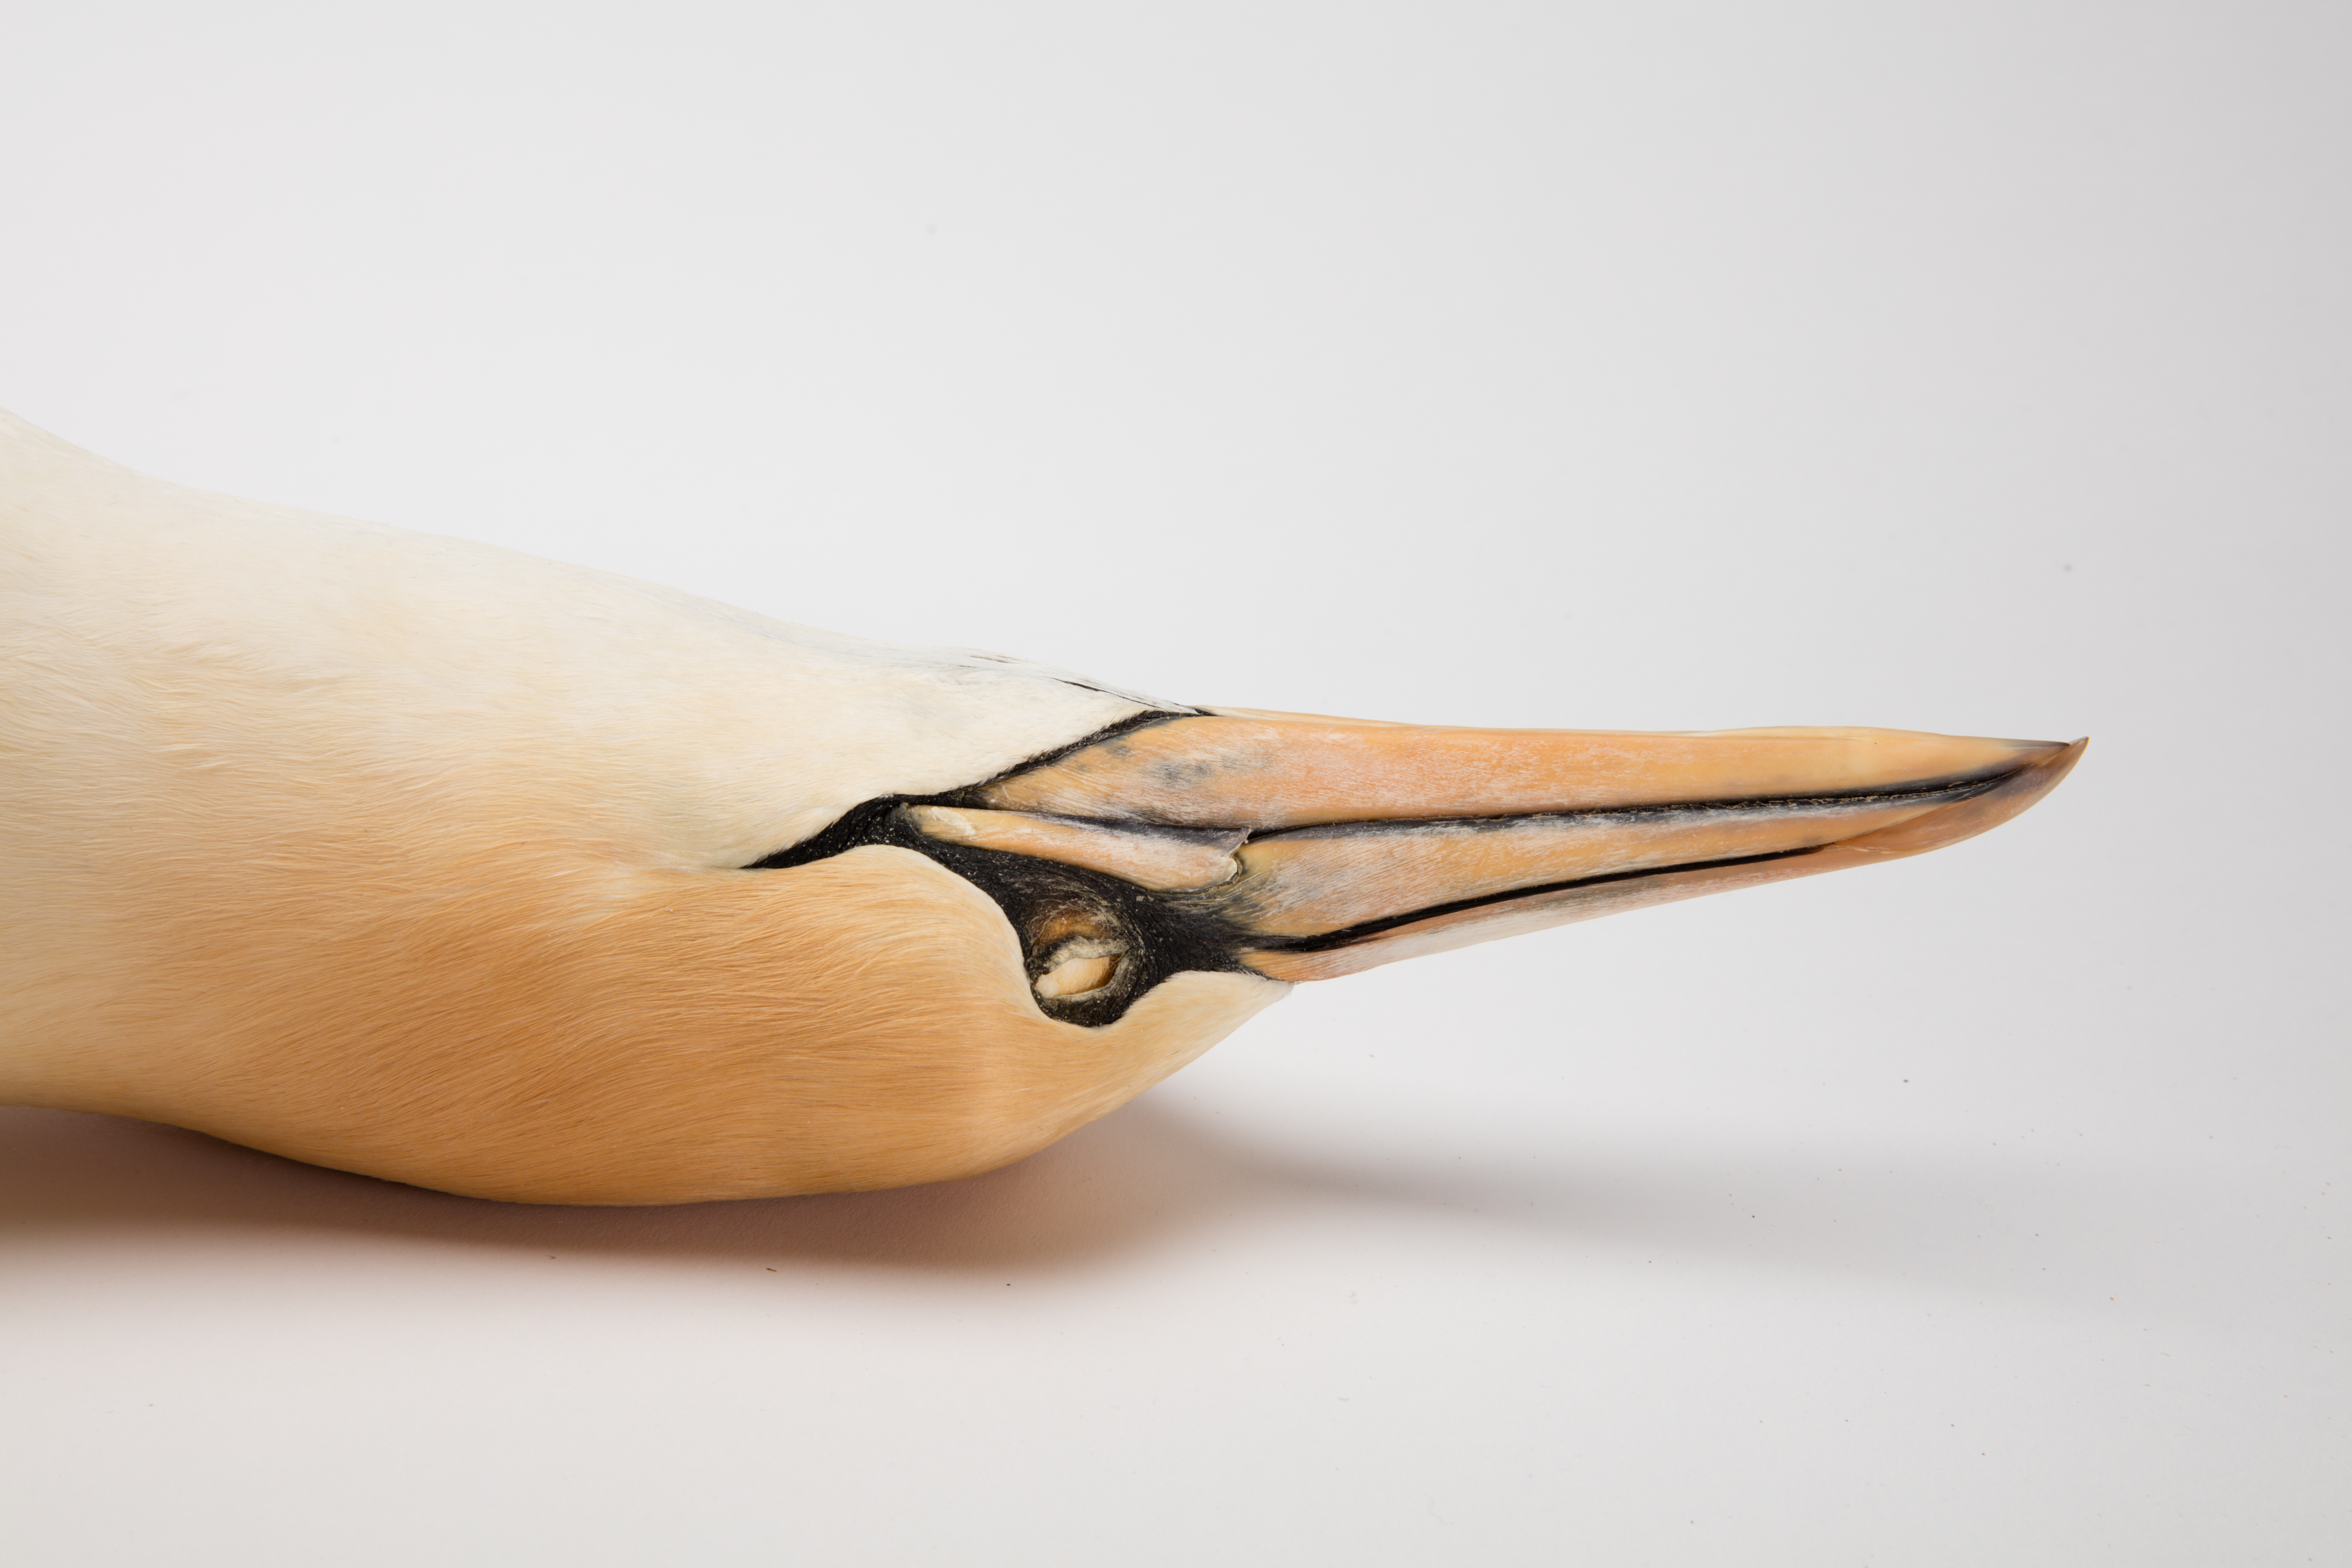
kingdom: Animalia
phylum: Chordata
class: Aves
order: Suliformes
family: Sulidae
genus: Morus
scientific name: Morus serrator
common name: Australasian gannet
